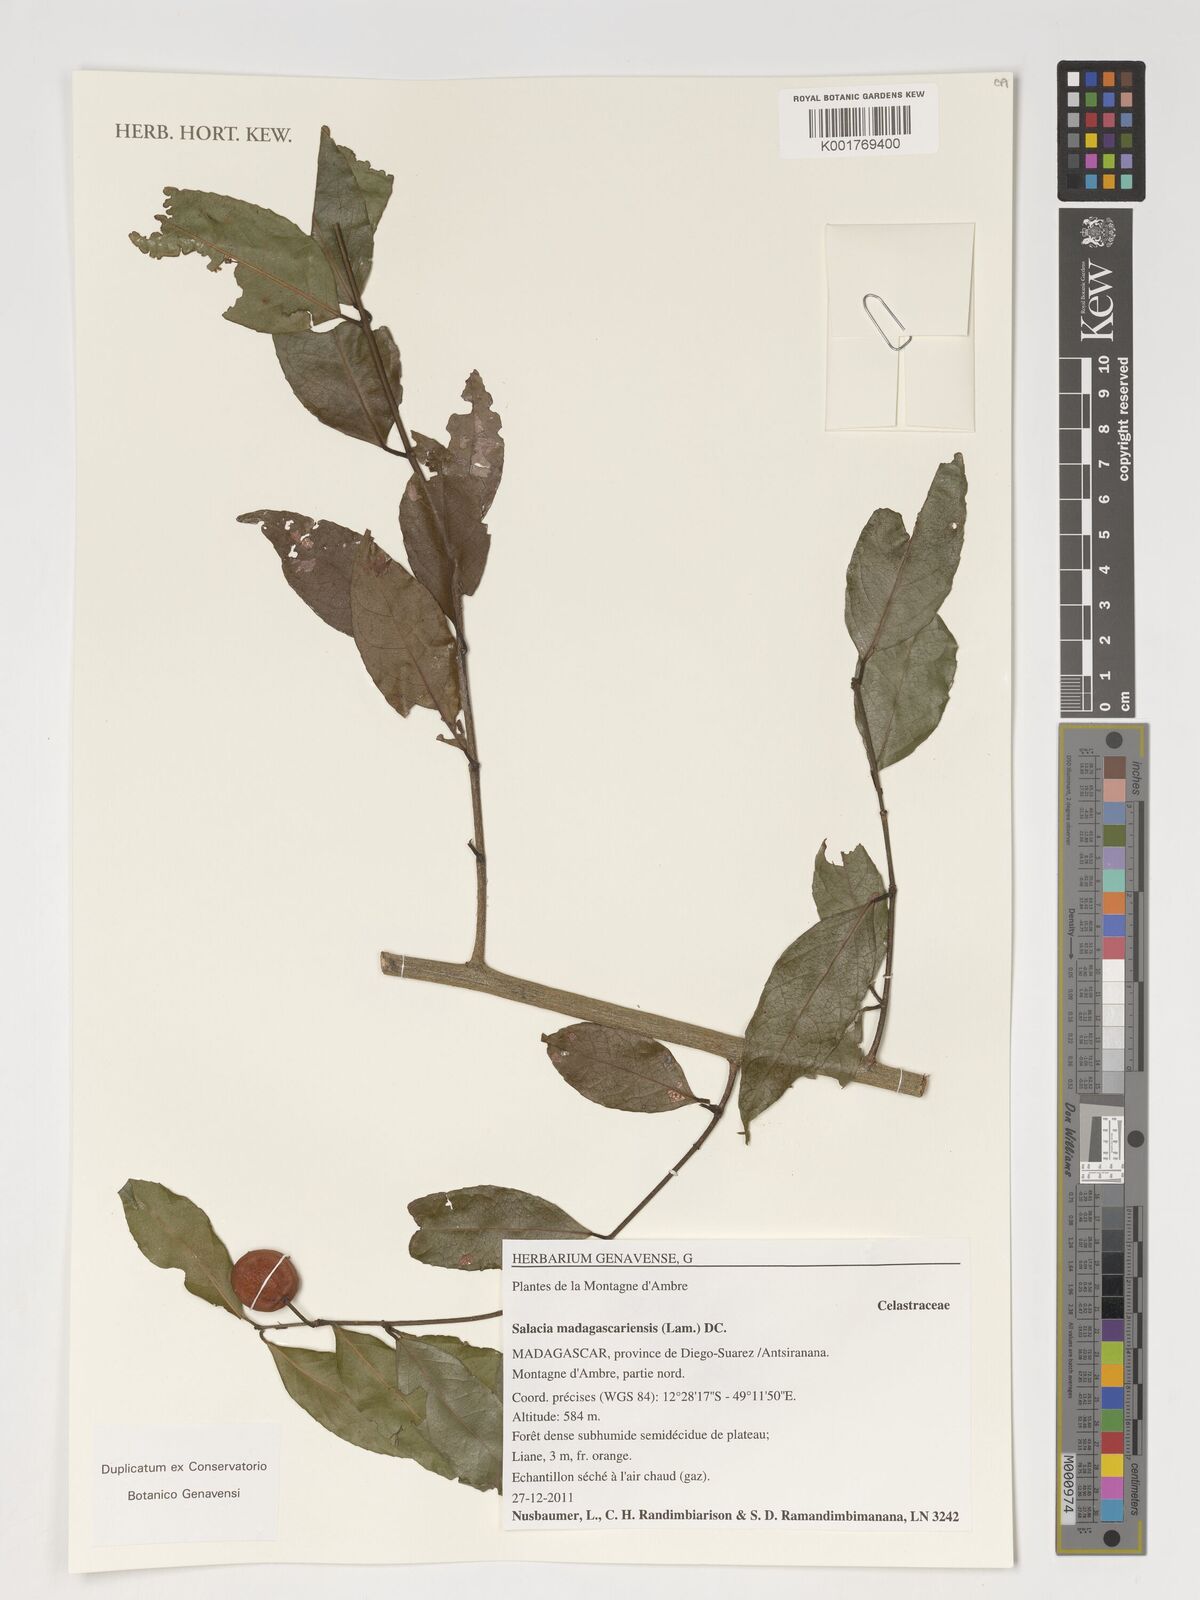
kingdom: Plantae
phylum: Tracheophyta
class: Magnoliopsida
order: Celastrales
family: Celastraceae
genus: Salacia
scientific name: Salacia madagascariensis
